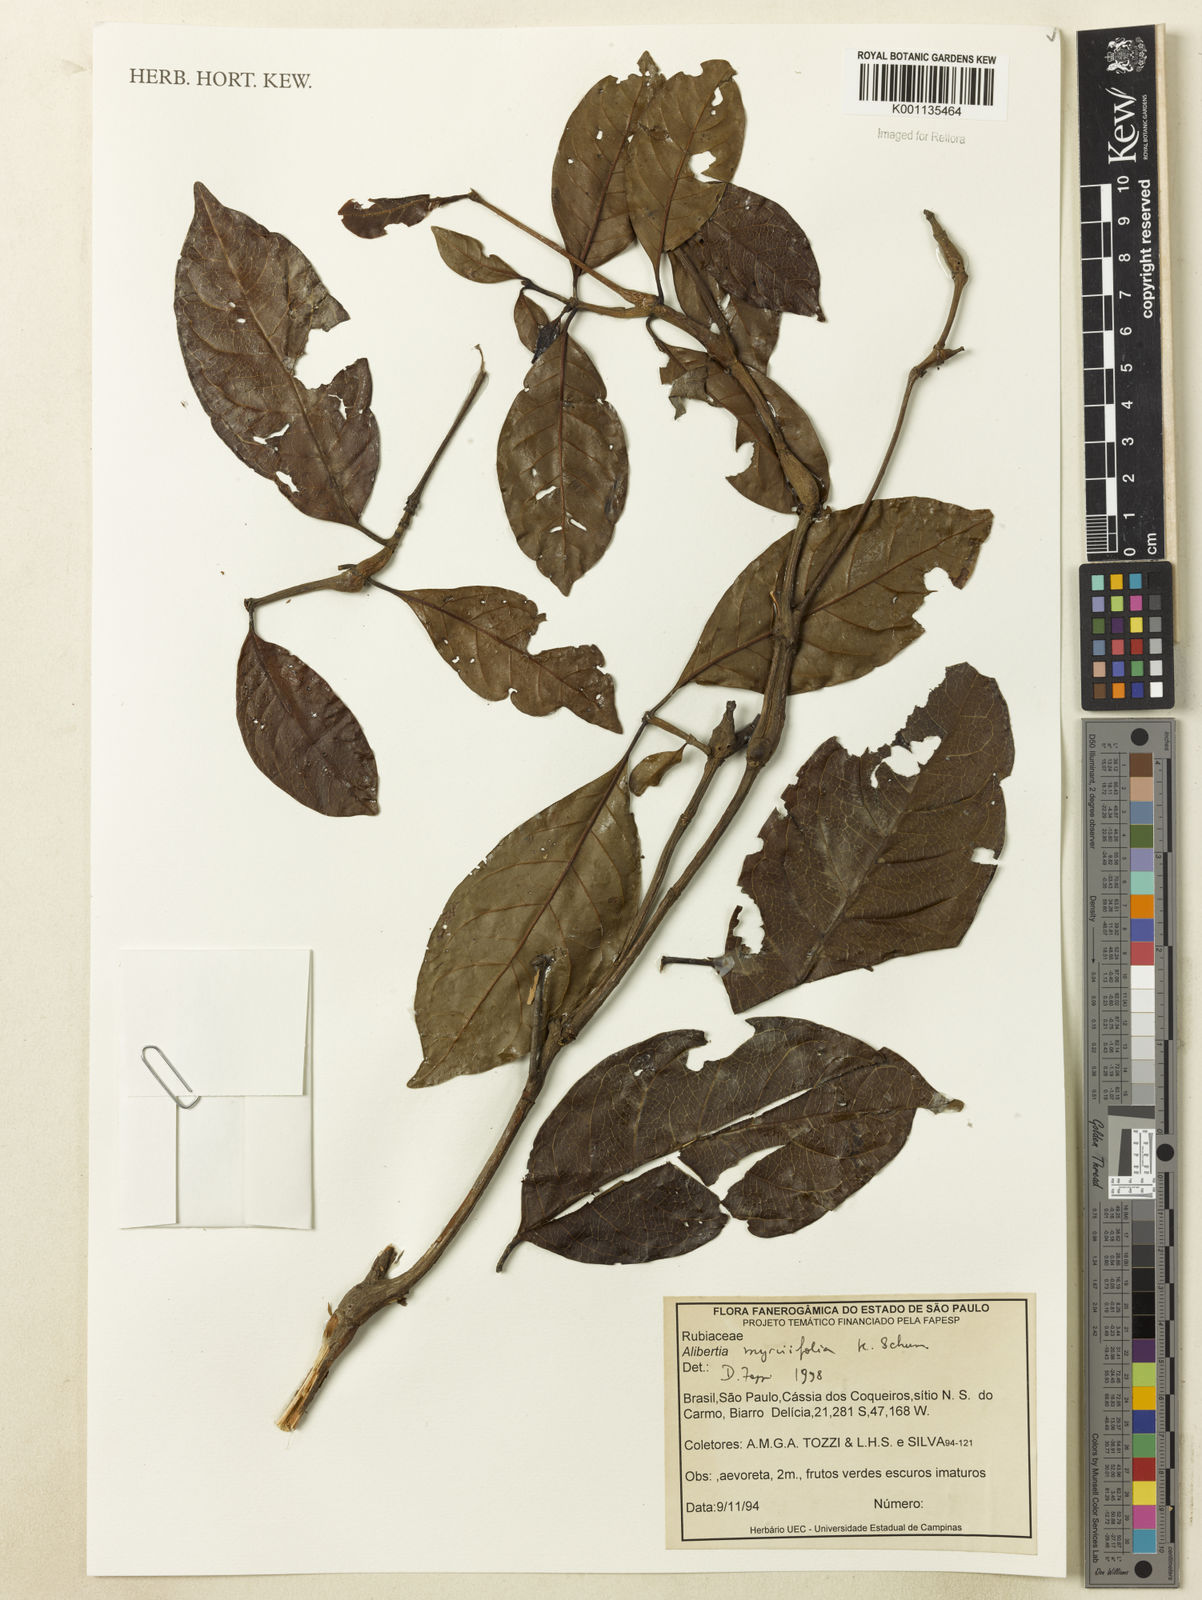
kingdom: Plantae
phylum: Tracheophyta
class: Magnoliopsida
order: Gentianales
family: Rubiaceae
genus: Cordiera
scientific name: Cordiera myrciifolia
